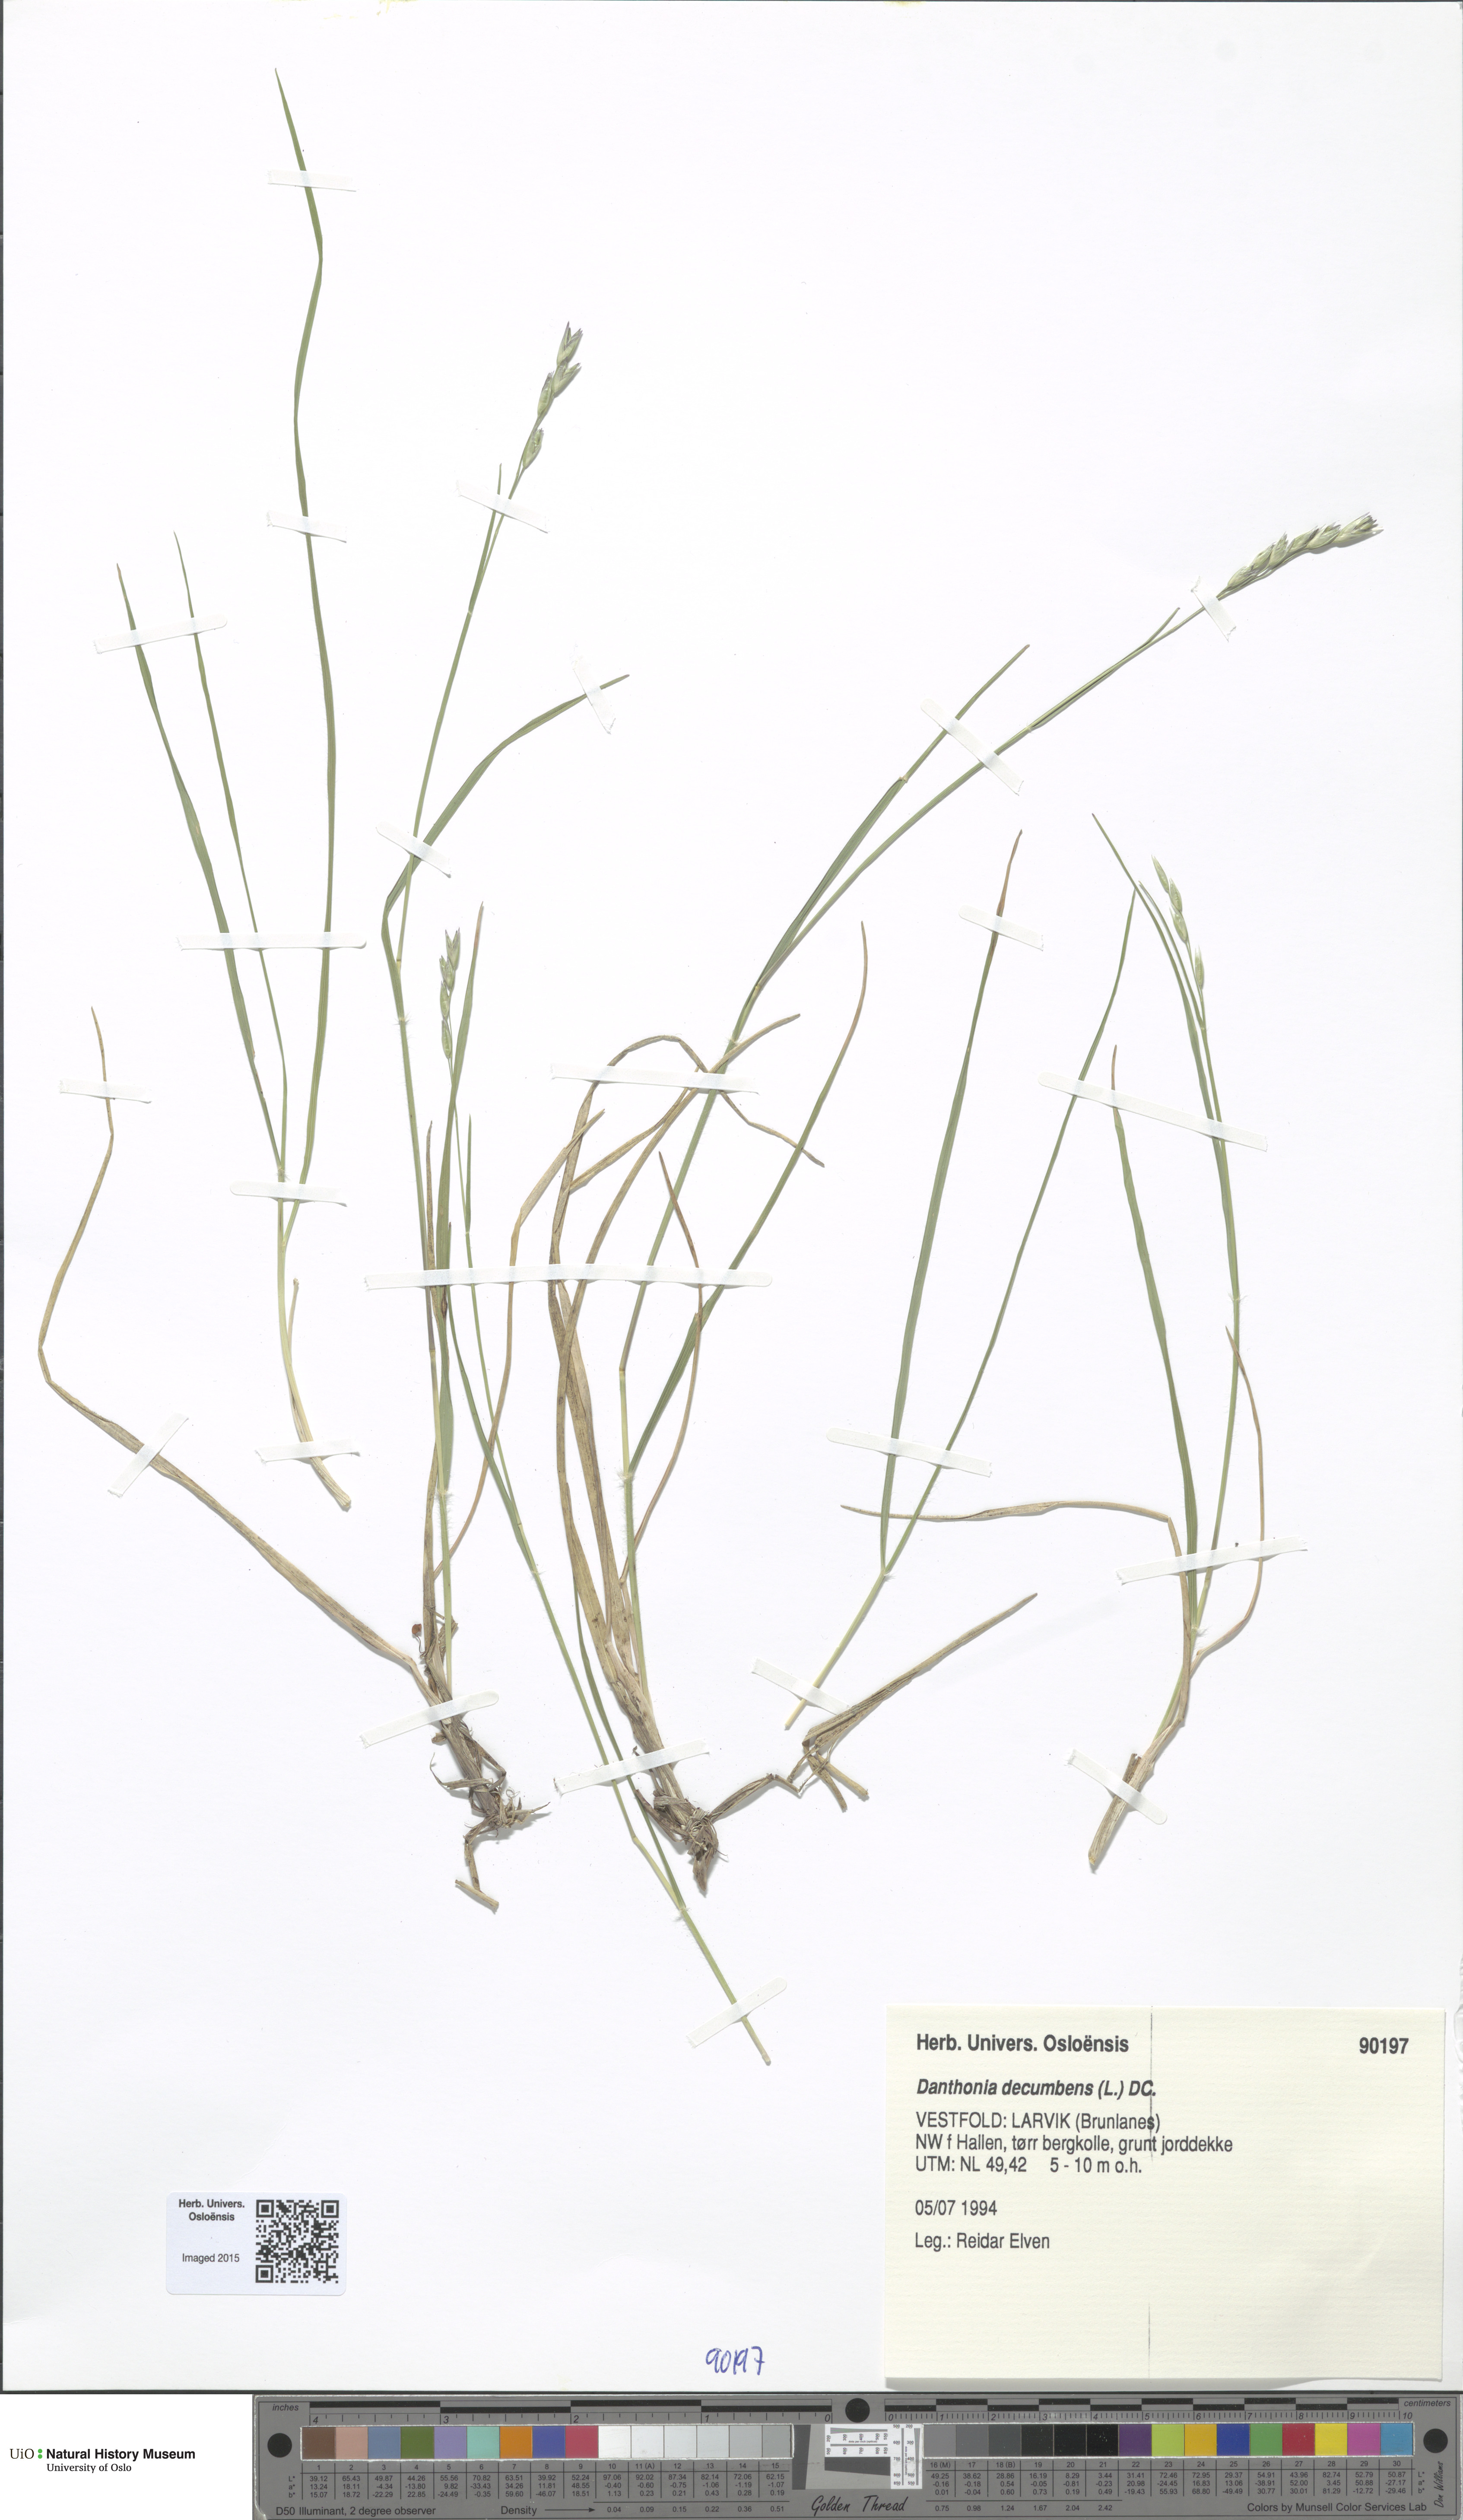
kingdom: Plantae
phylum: Tracheophyta
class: Liliopsida
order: Poales
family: Poaceae
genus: Danthonia
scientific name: Danthonia decumbens
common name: Common heathgrass
